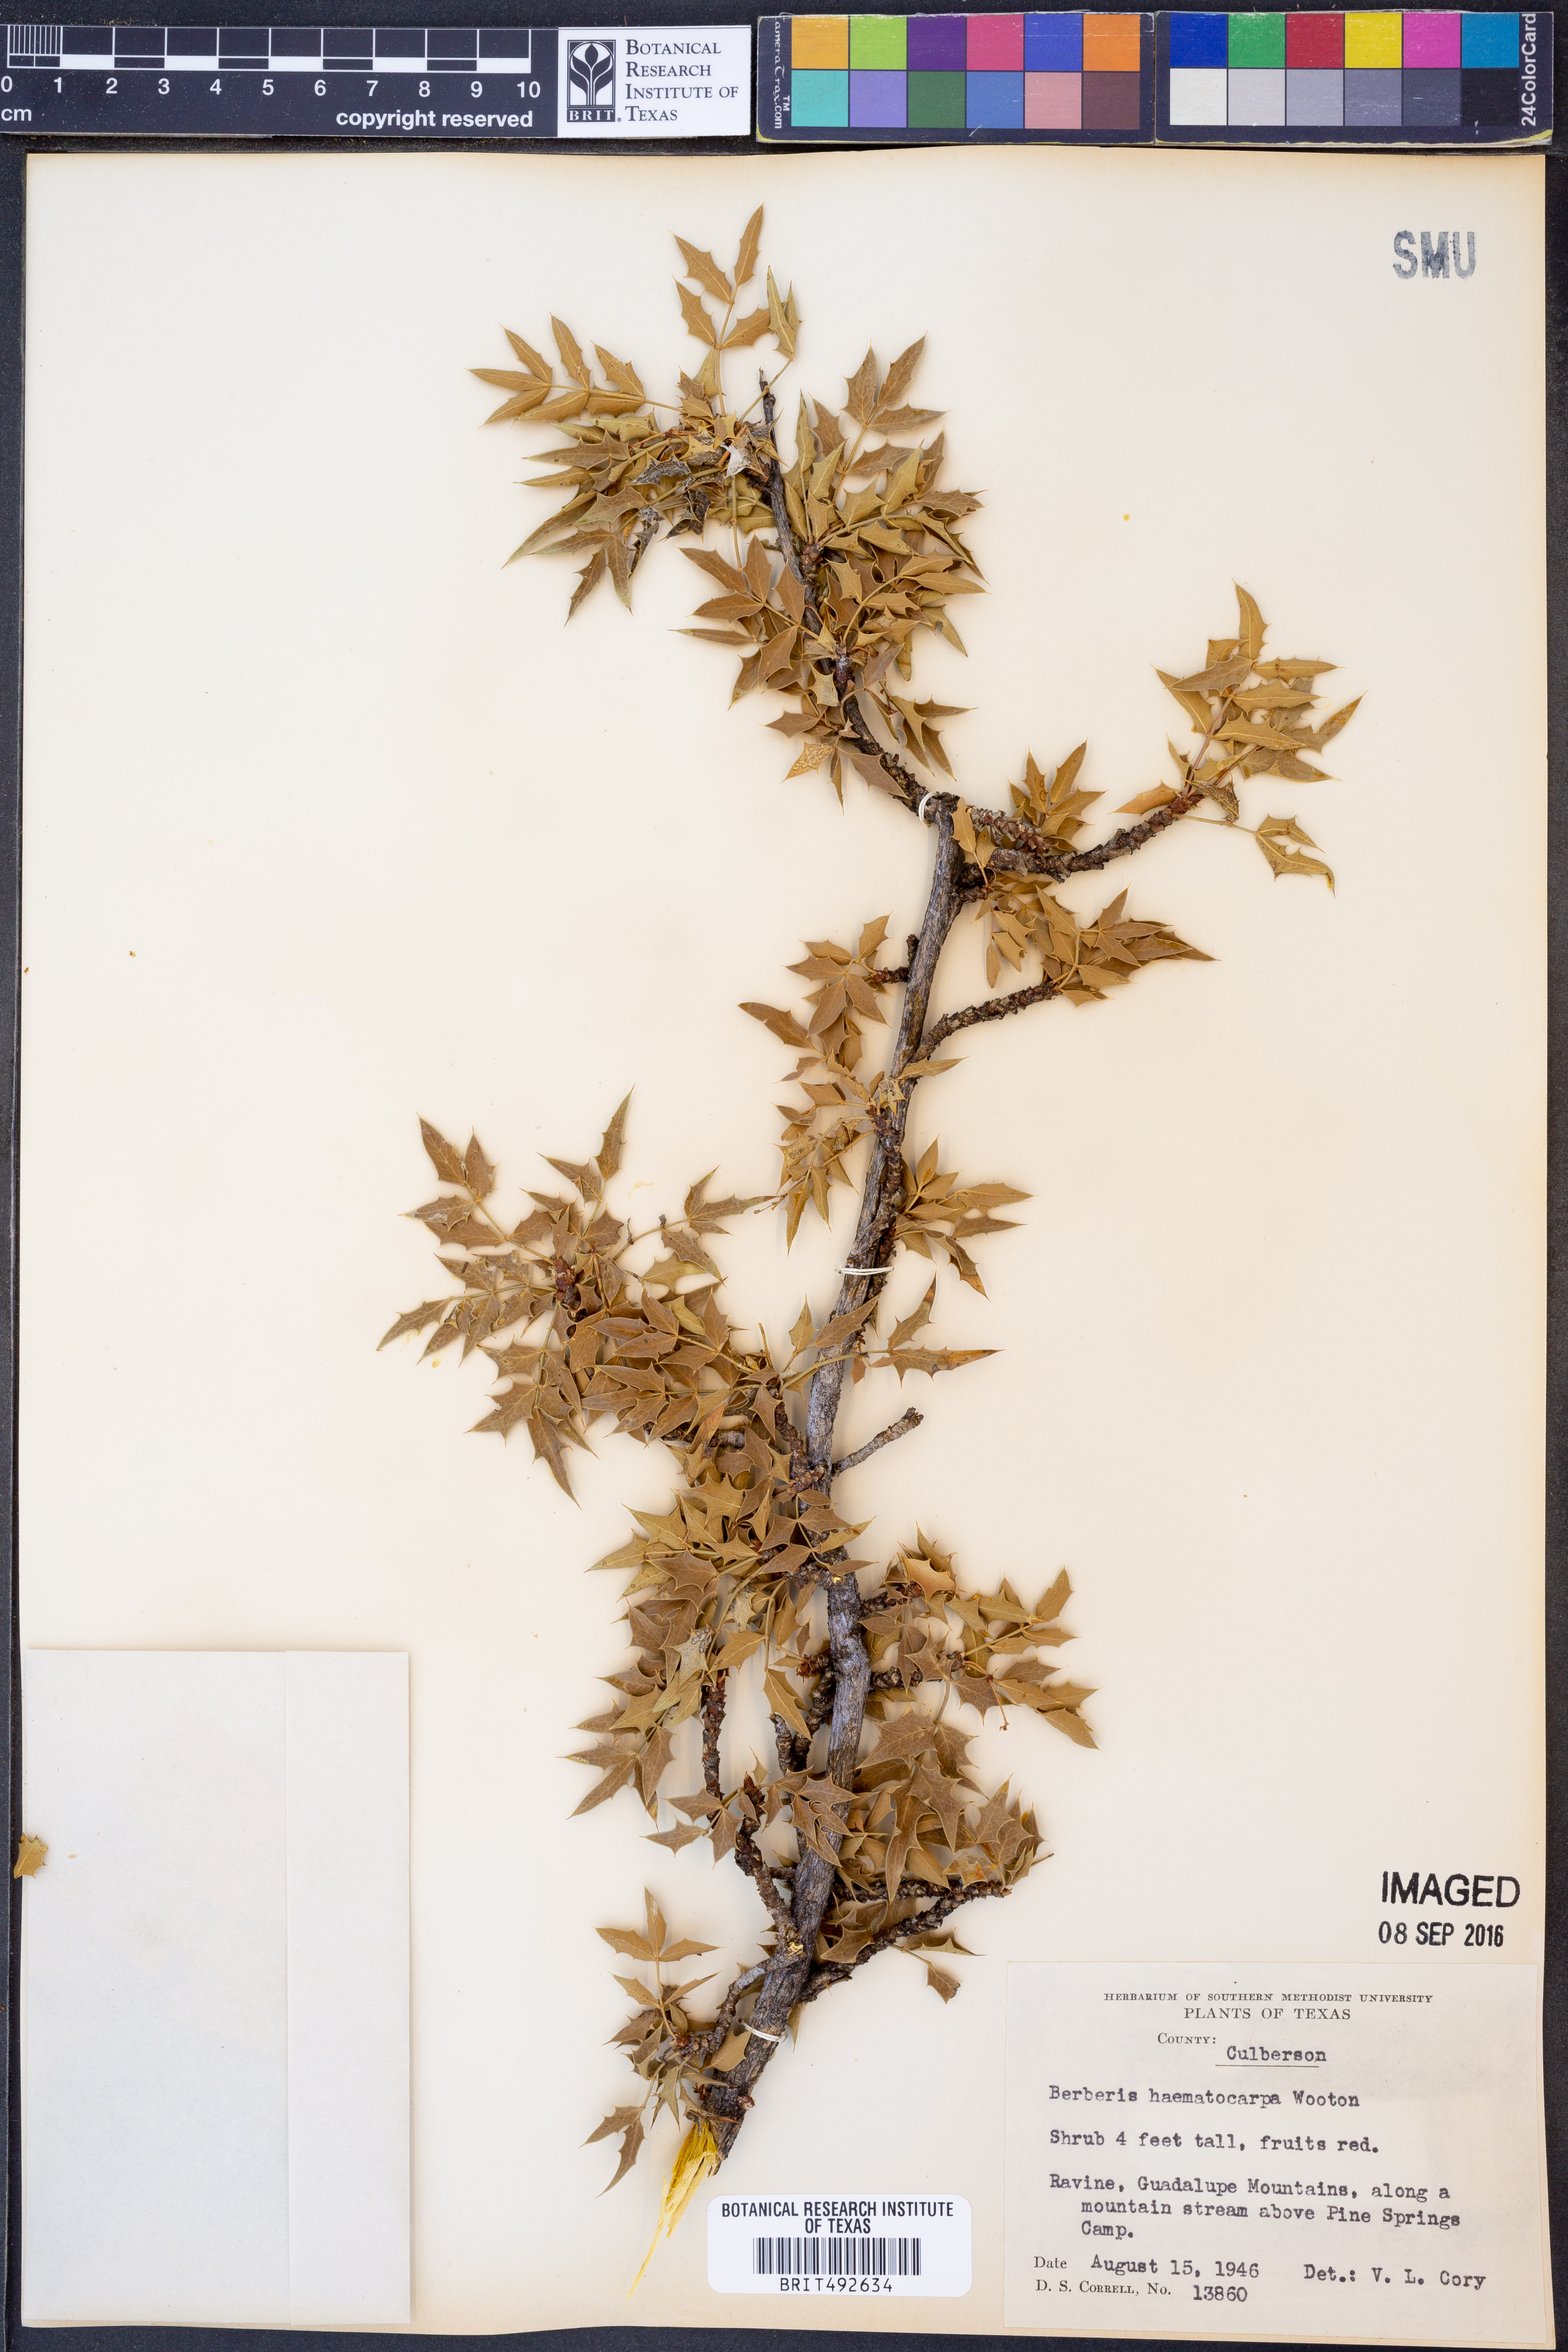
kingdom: Plantae
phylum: Tracheophyta
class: Magnoliopsida
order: Ranunculales
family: Berberidaceae
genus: Alloberberis
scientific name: Alloberberis haematocarpa
